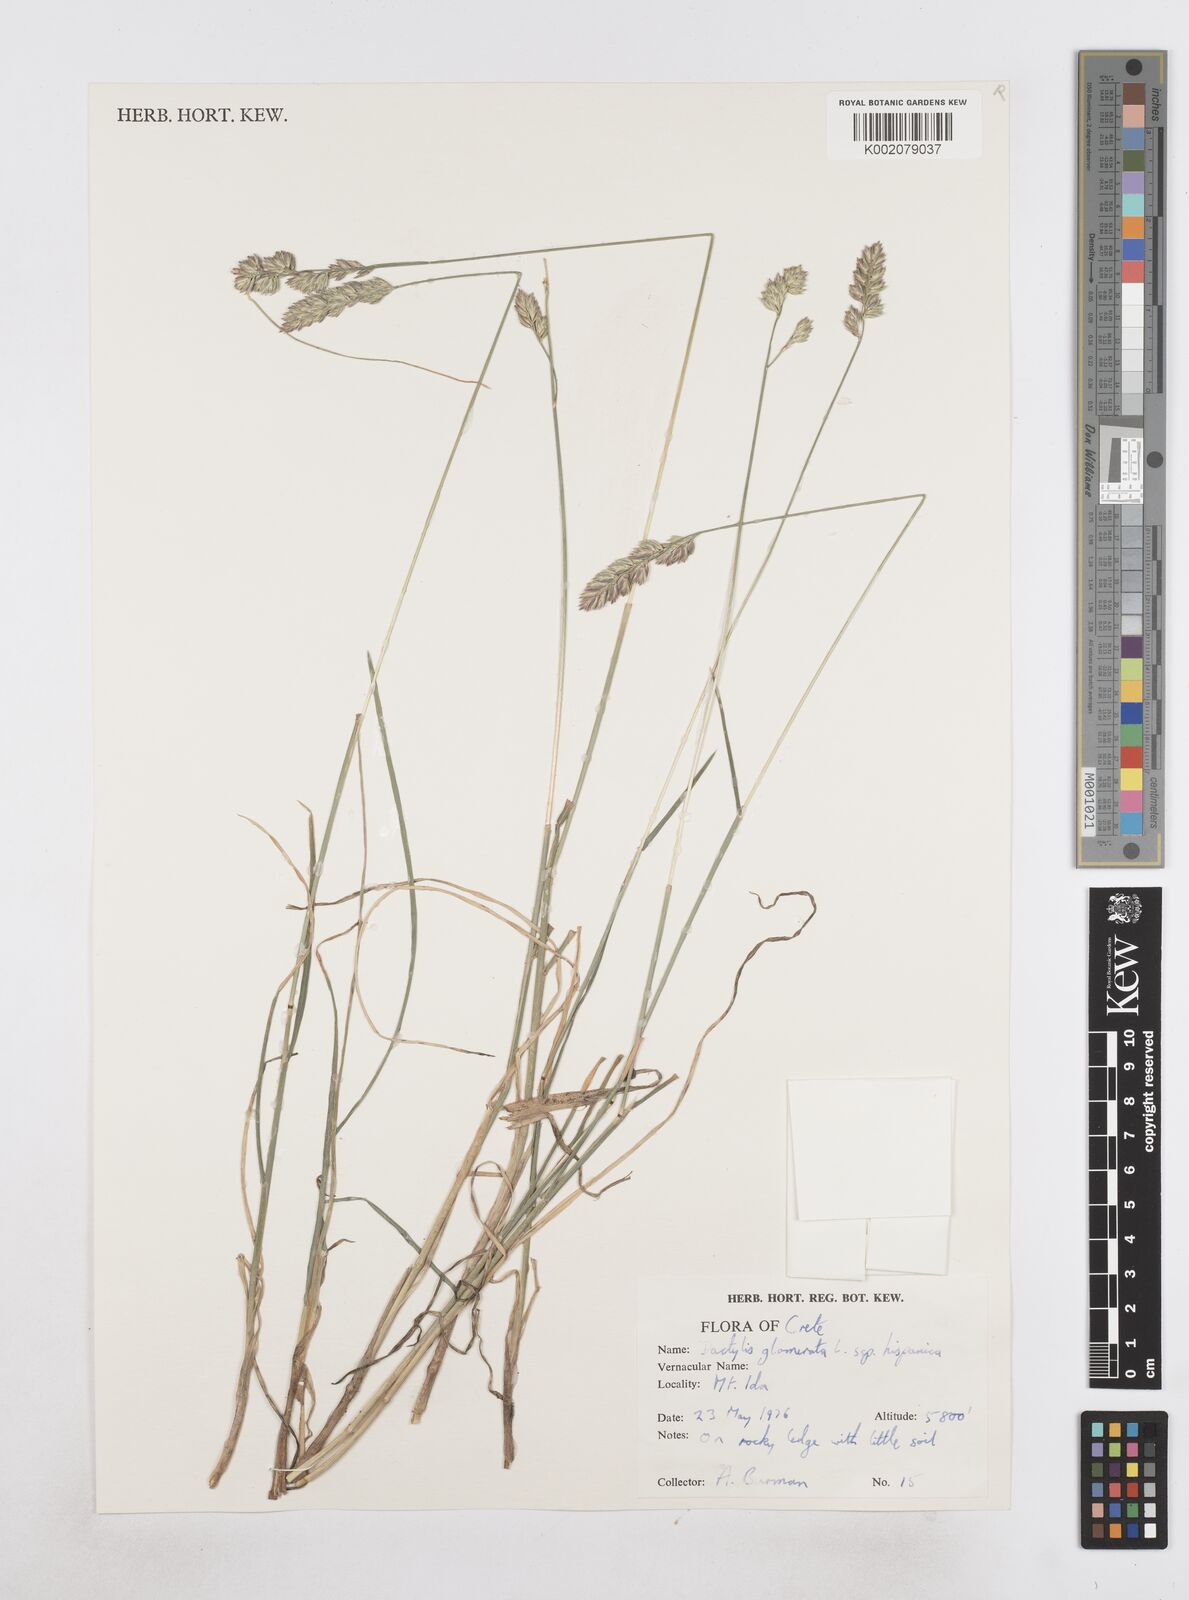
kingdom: Plantae
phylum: Tracheophyta
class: Liliopsida
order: Poales
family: Poaceae
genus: Dactylis
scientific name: Dactylis glomerata
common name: Orchardgrass
